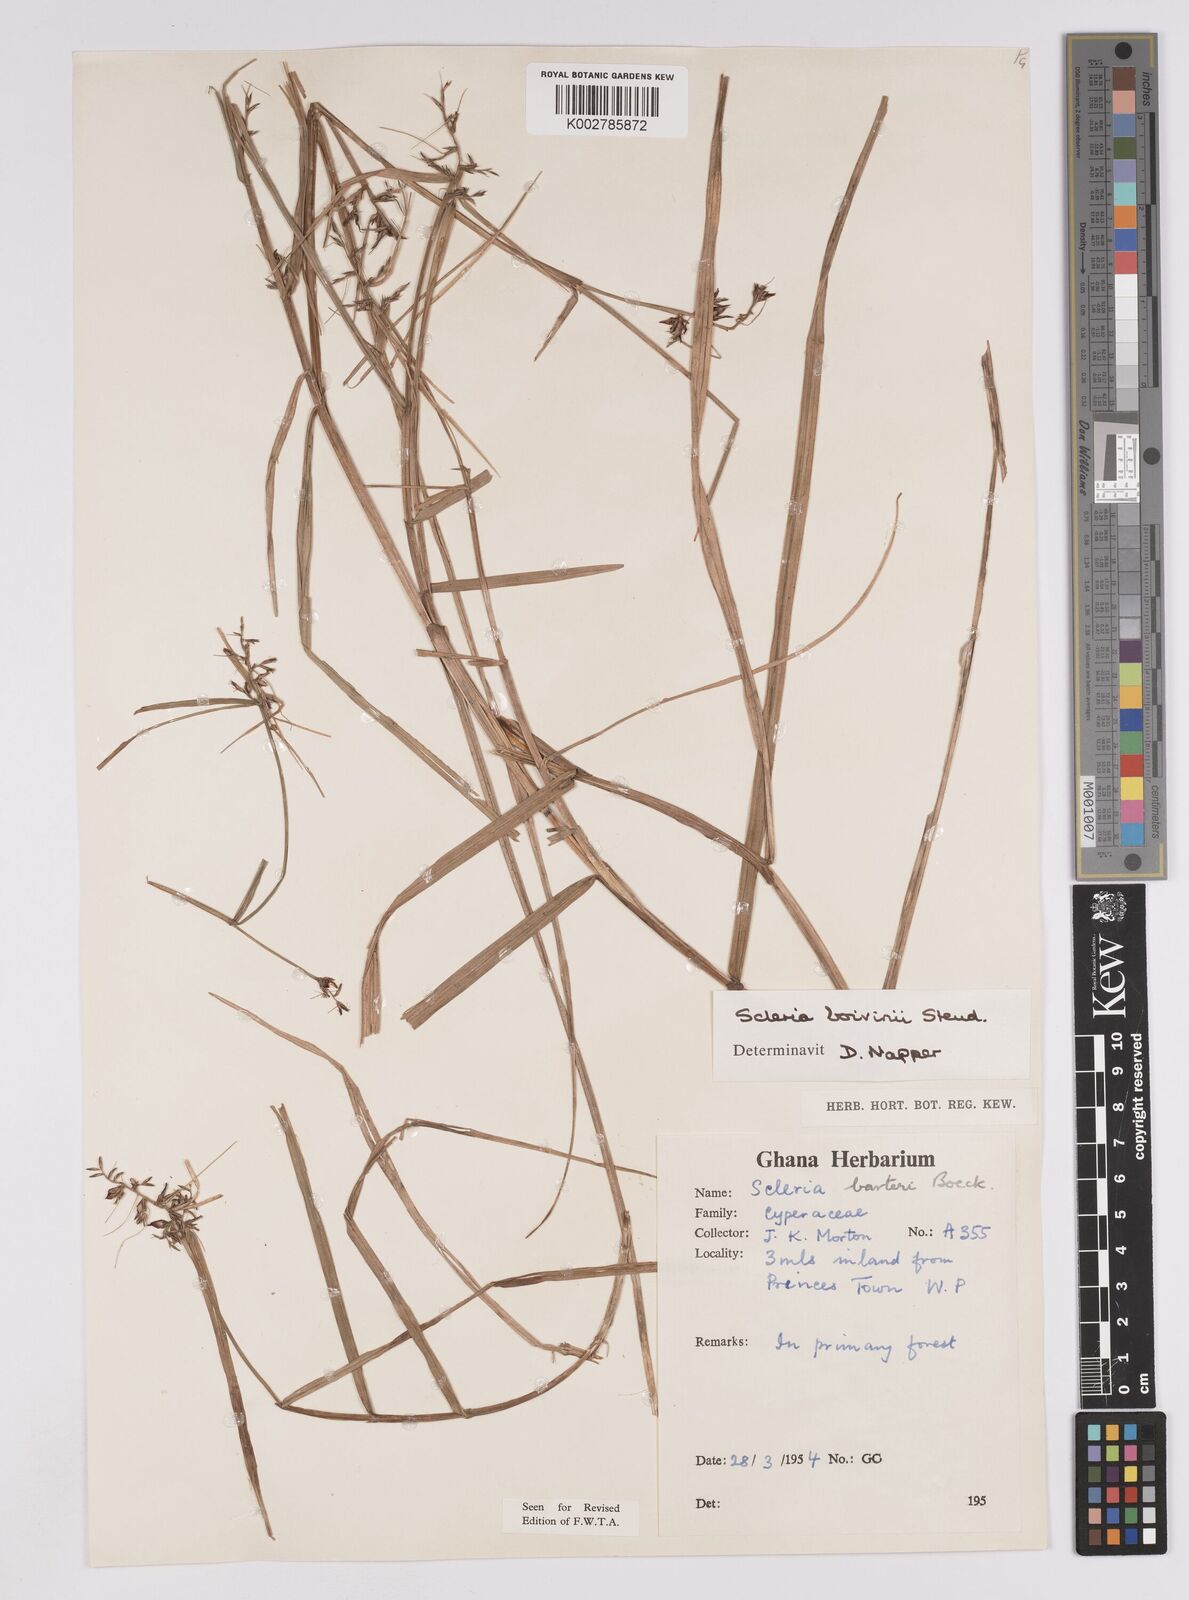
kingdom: Plantae
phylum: Tracheophyta
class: Liliopsida
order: Poales
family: Cyperaceae
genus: Scleria
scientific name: Scleria boivinii
